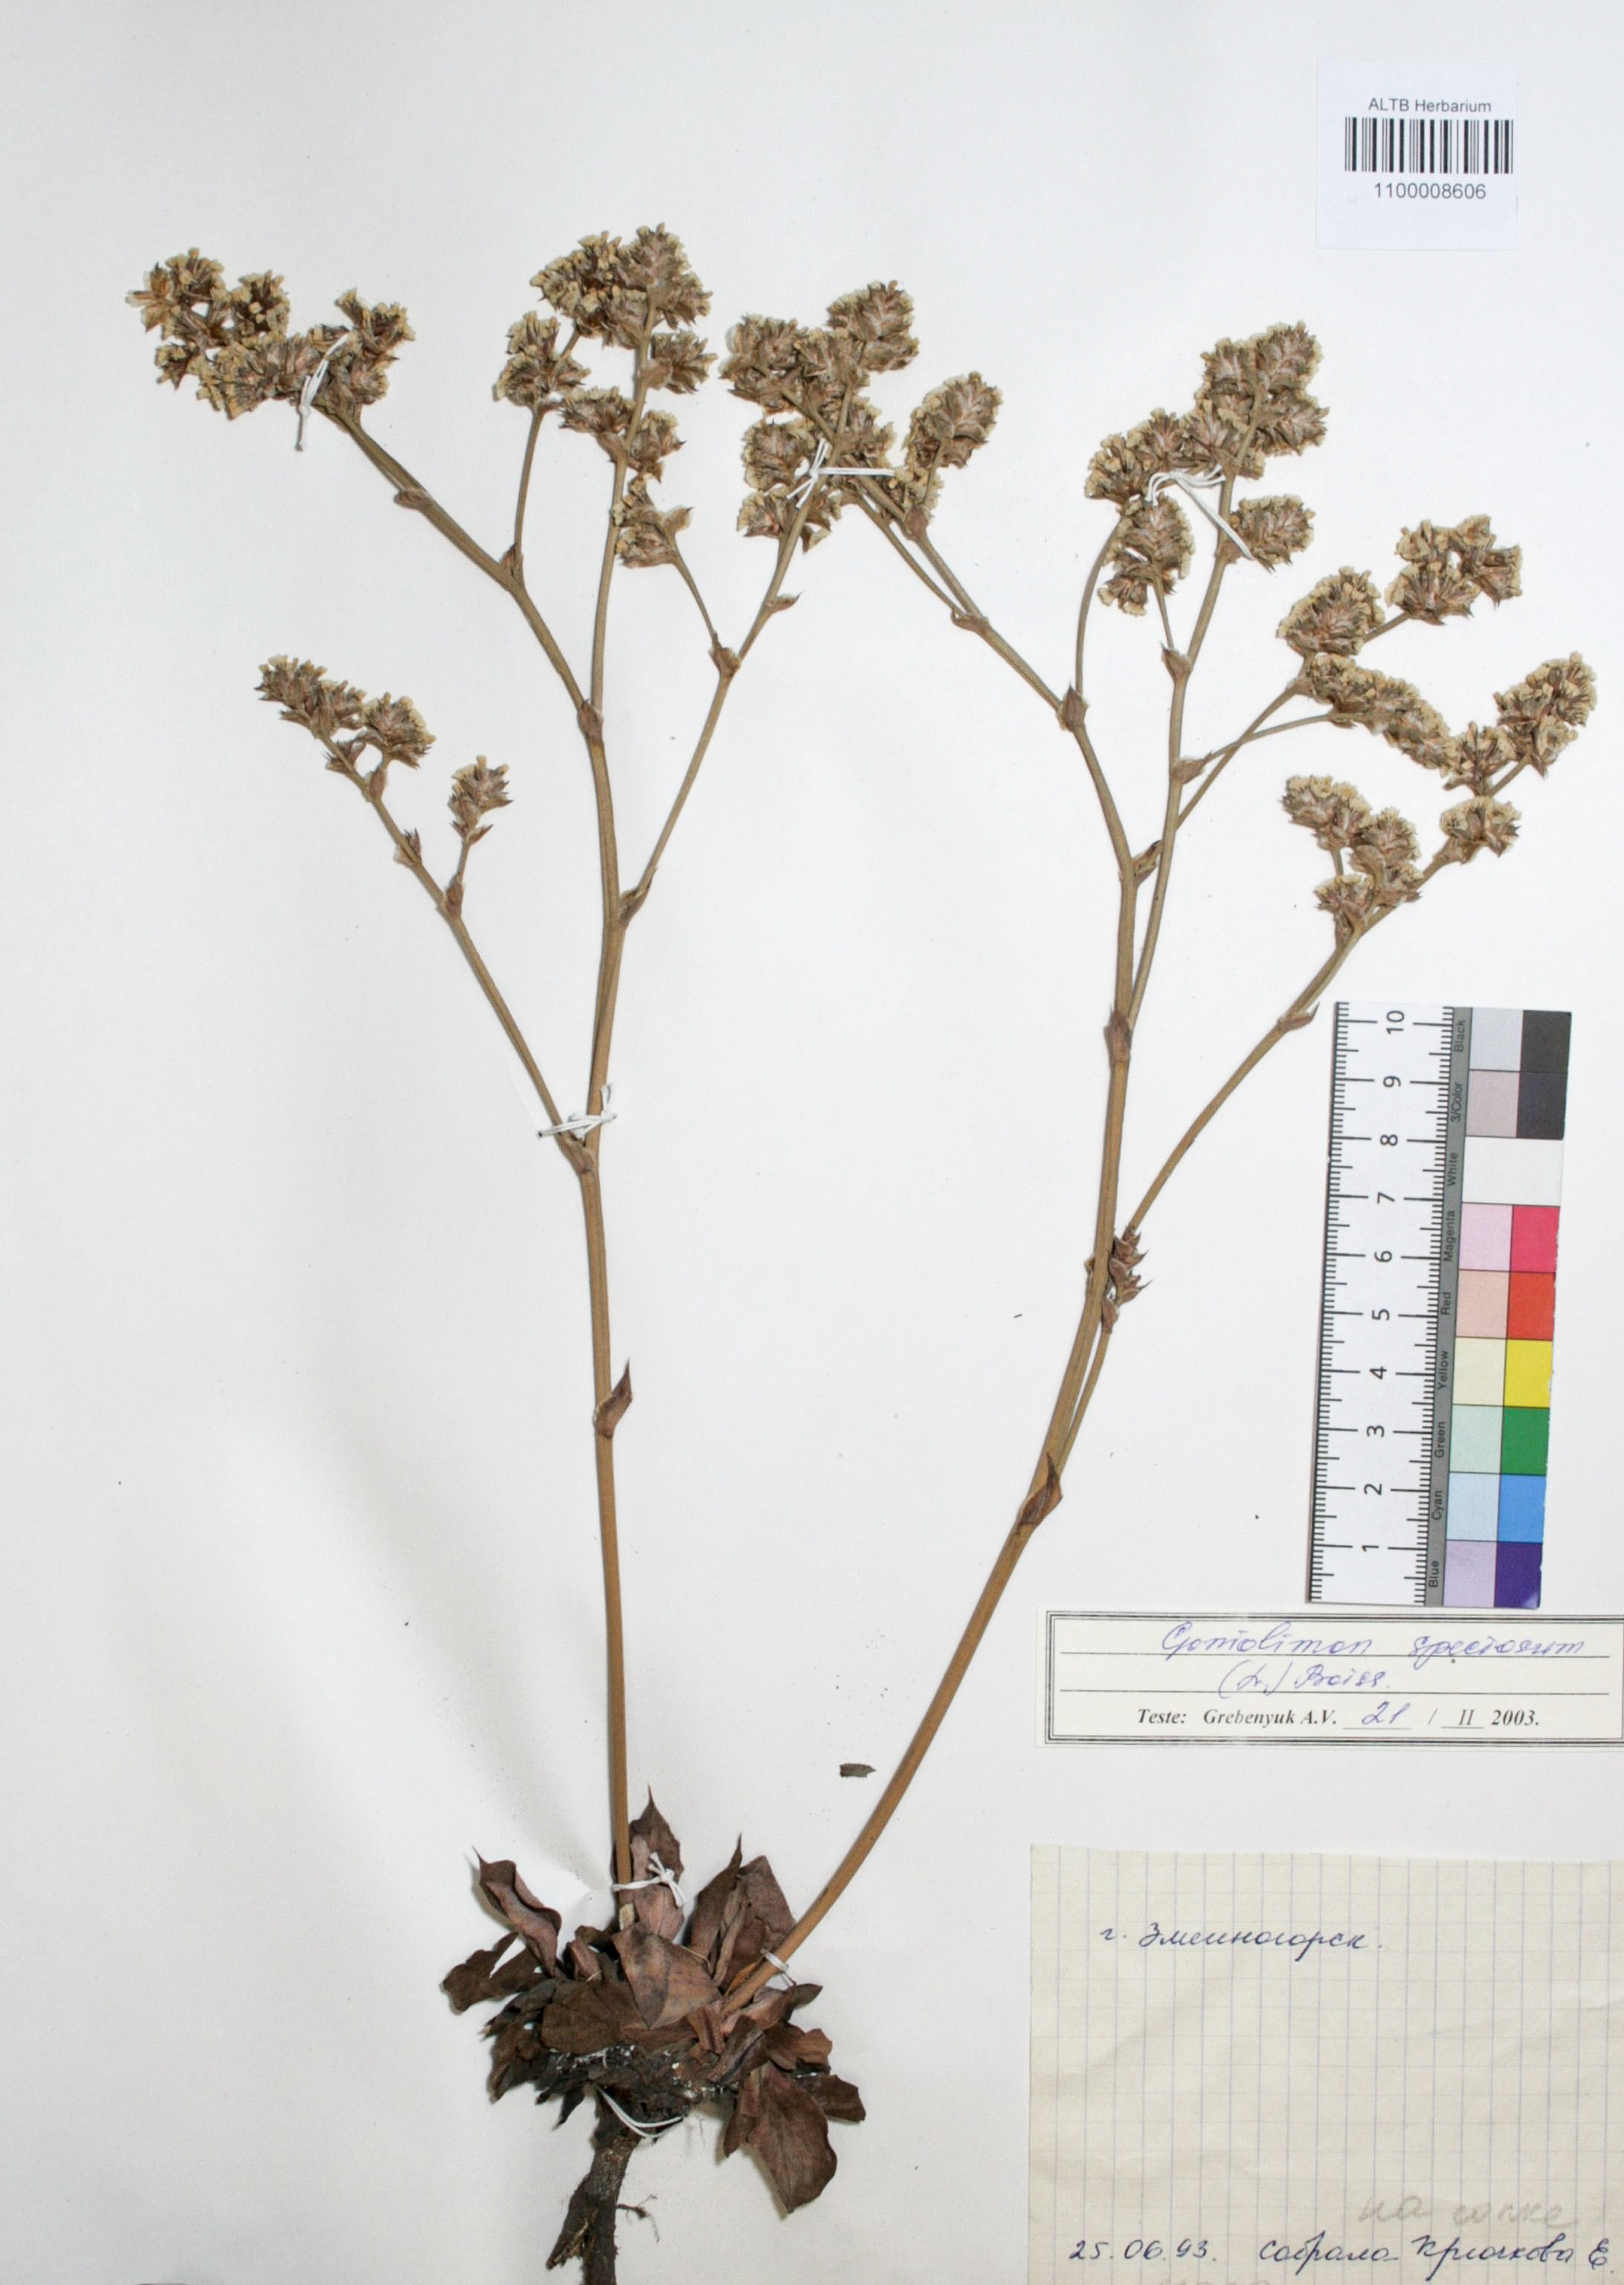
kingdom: Plantae
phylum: Tracheophyta
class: Magnoliopsida
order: Caryophyllales
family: Plumbaginaceae
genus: Goniolimon
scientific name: Goniolimon speciosum
